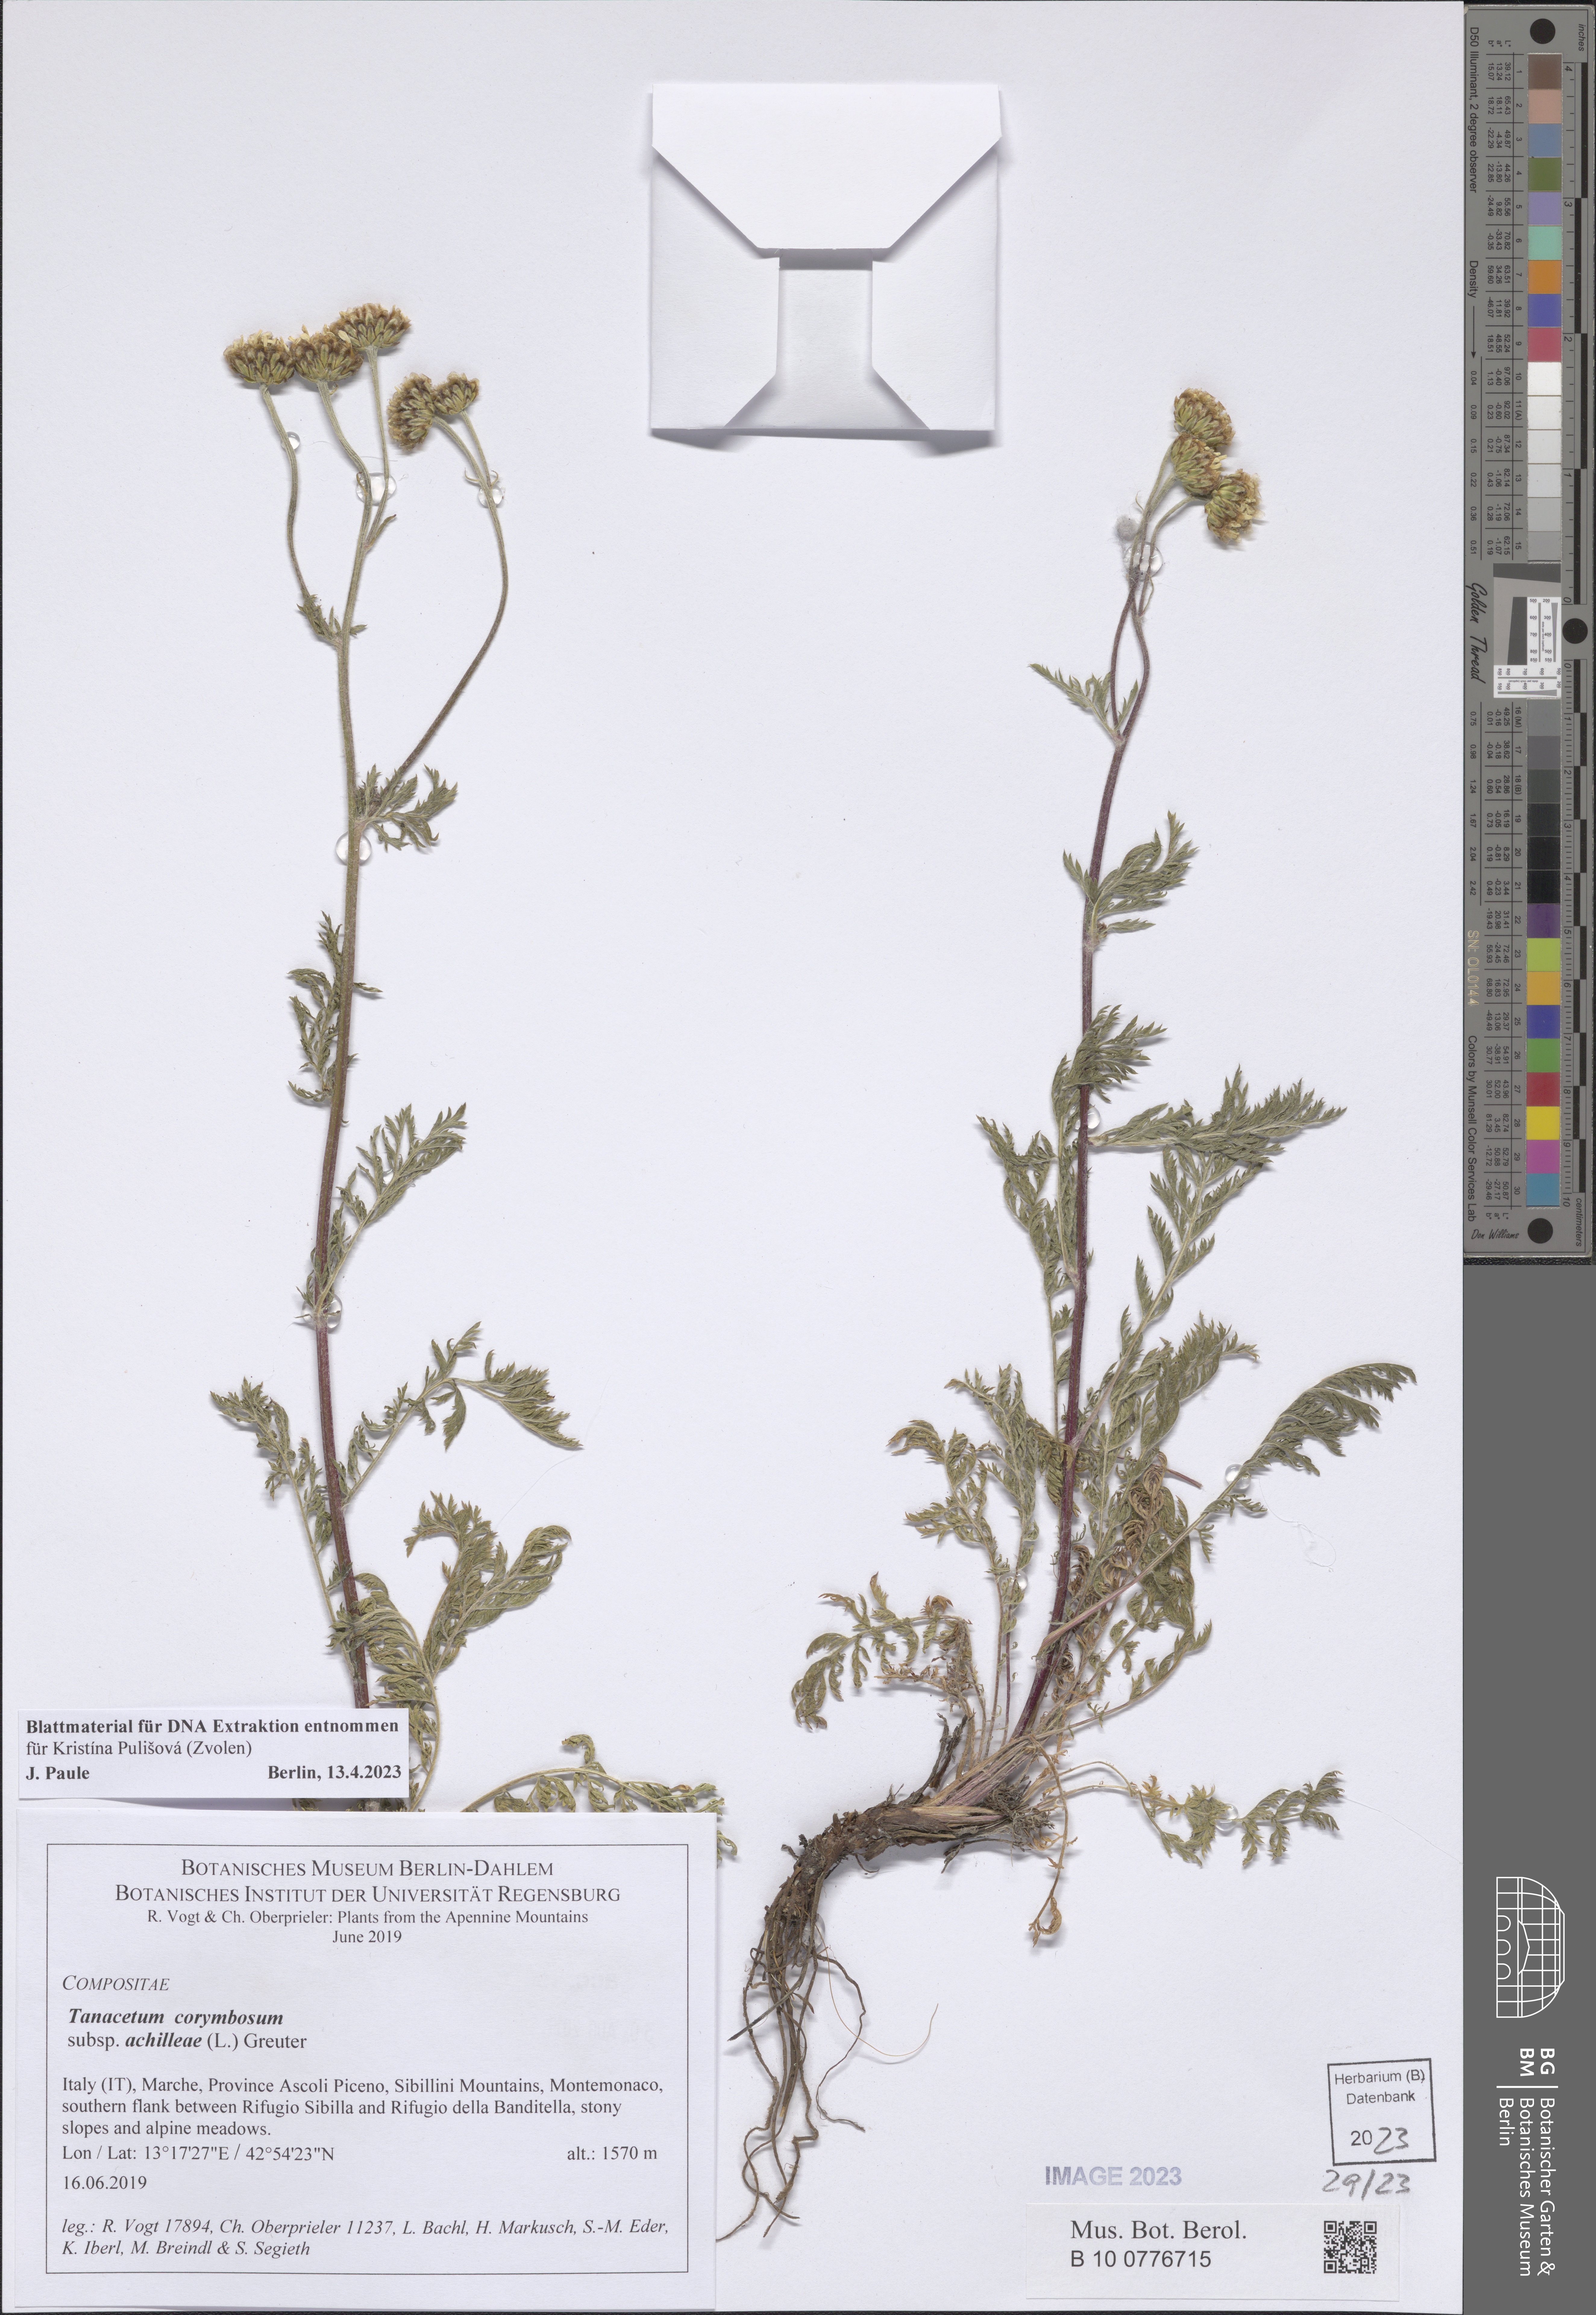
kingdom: Plantae
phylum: Tracheophyta
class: Magnoliopsida
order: Asterales
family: Asteraceae
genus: Tanacetum
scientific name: Tanacetum corymbosum
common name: Scentless feverfew
